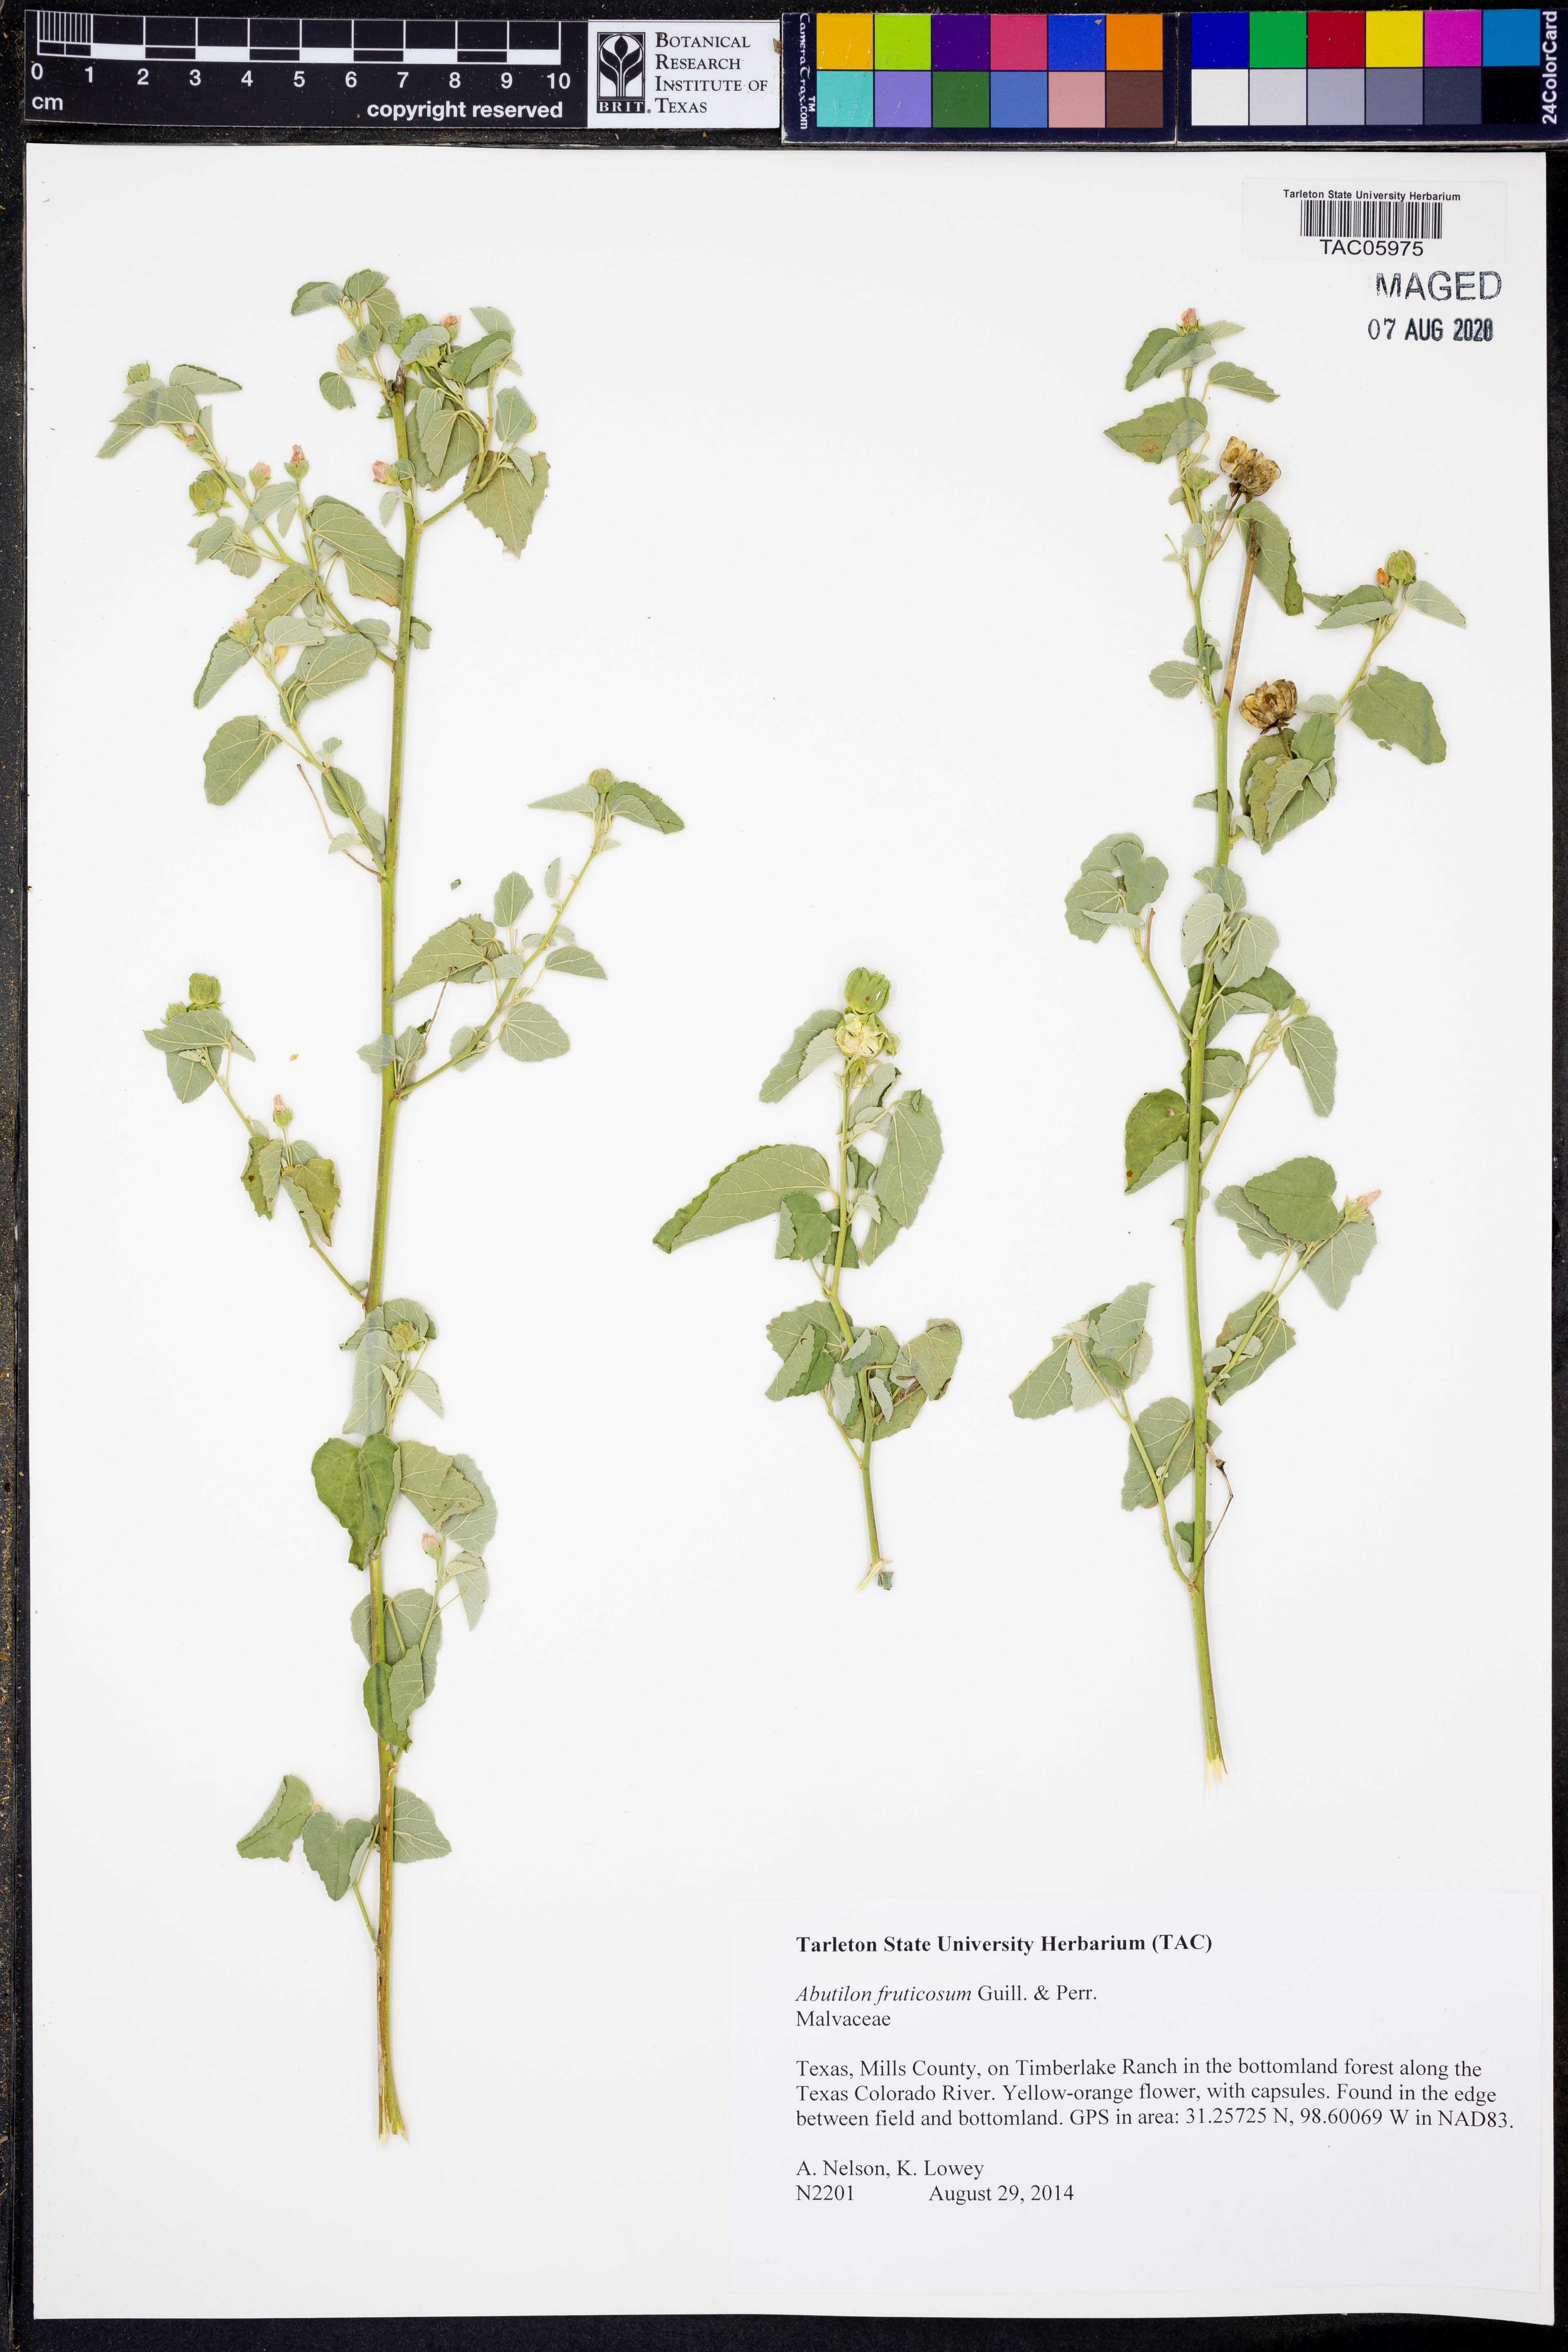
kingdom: Plantae
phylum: Tracheophyta
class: Magnoliopsida
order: Malvales
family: Malvaceae
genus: Abutilon
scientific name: Abutilon fruticosum
